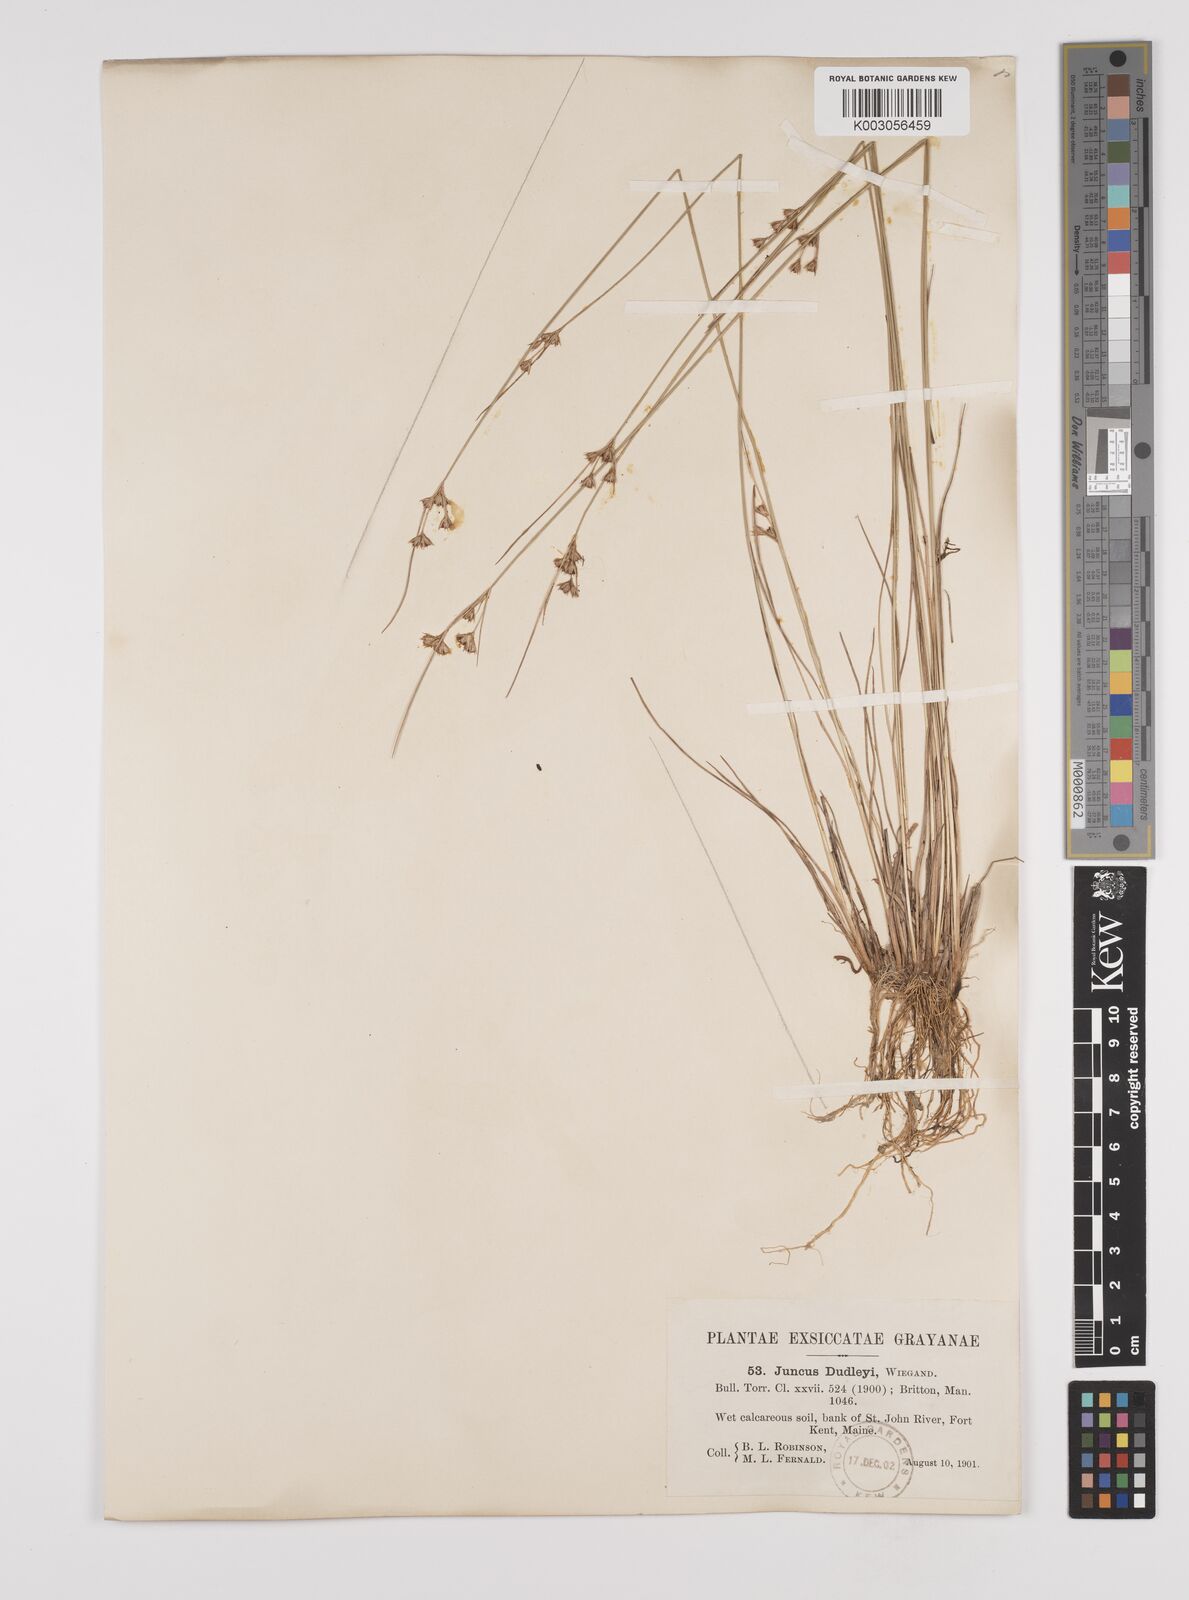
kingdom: Plantae
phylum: Tracheophyta
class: Liliopsida
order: Poales
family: Juncaceae
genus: Juncus
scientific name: Juncus dudleyi
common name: Dudley's rush
